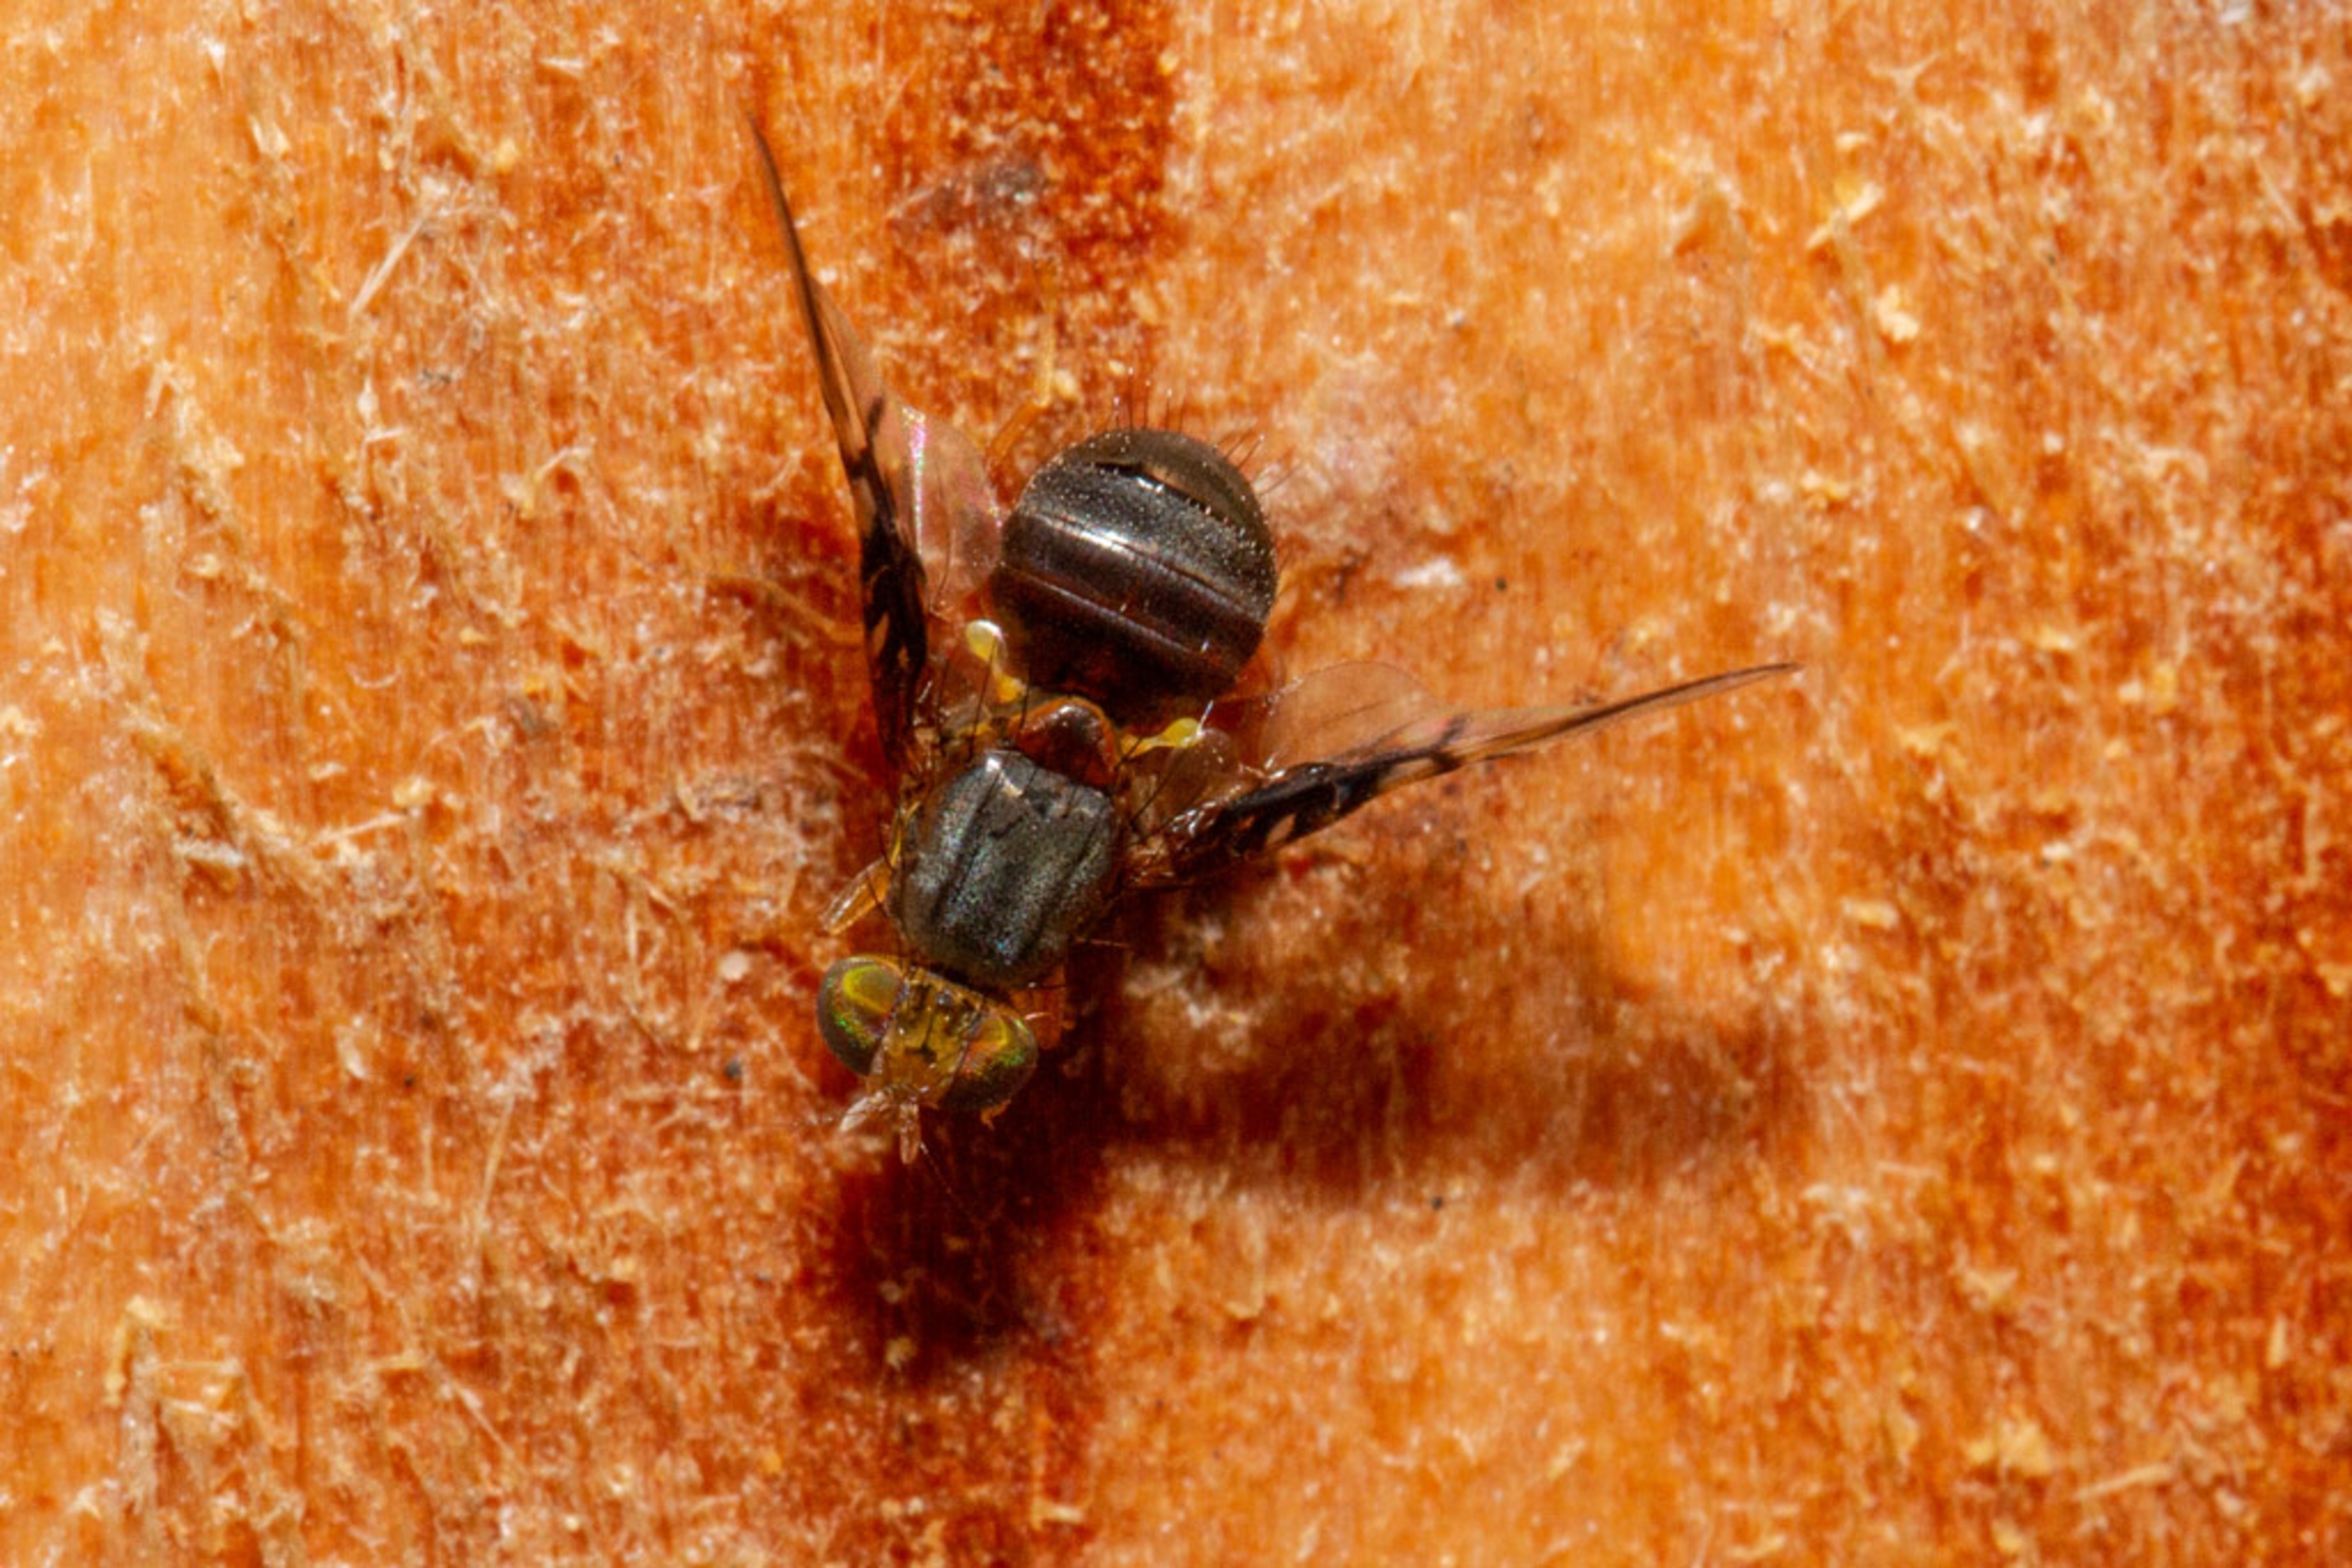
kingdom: Animalia
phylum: Arthropoda
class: Insecta
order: Diptera
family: Tephritidae
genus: Anomoia
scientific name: Anomoia purmunda
